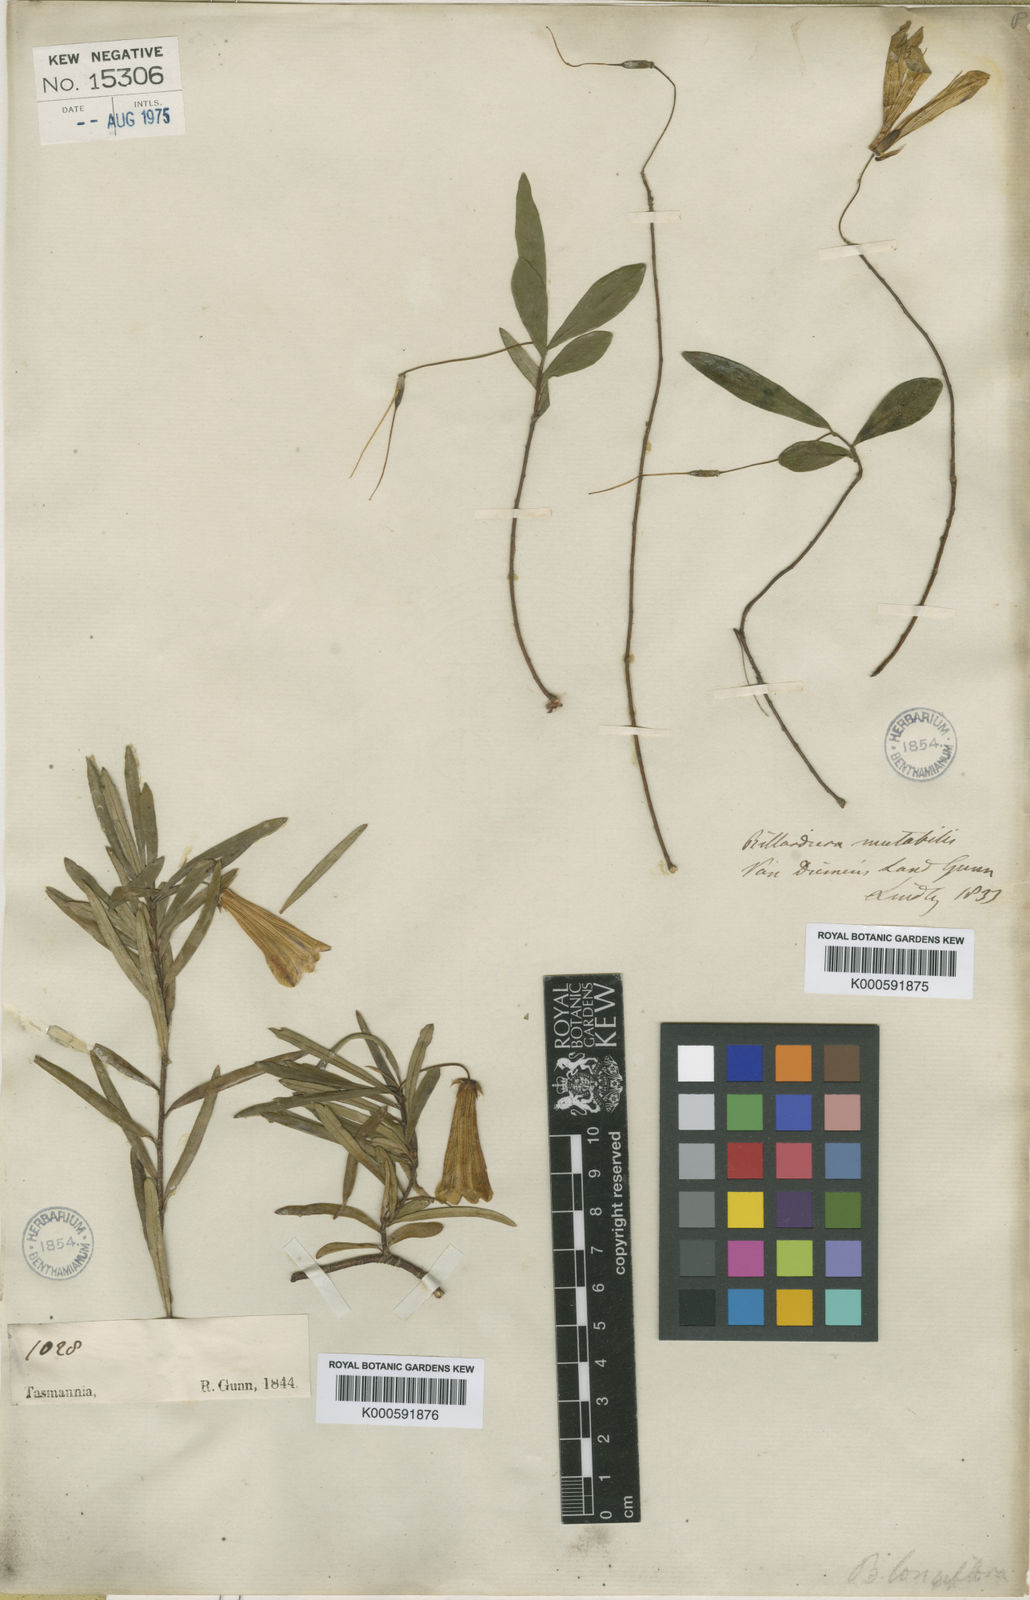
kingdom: Plantae
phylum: Tracheophyta
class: Magnoliopsida
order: Apiales
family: Pittosporaceae
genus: Billardiera
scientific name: Billardiera longiflora
